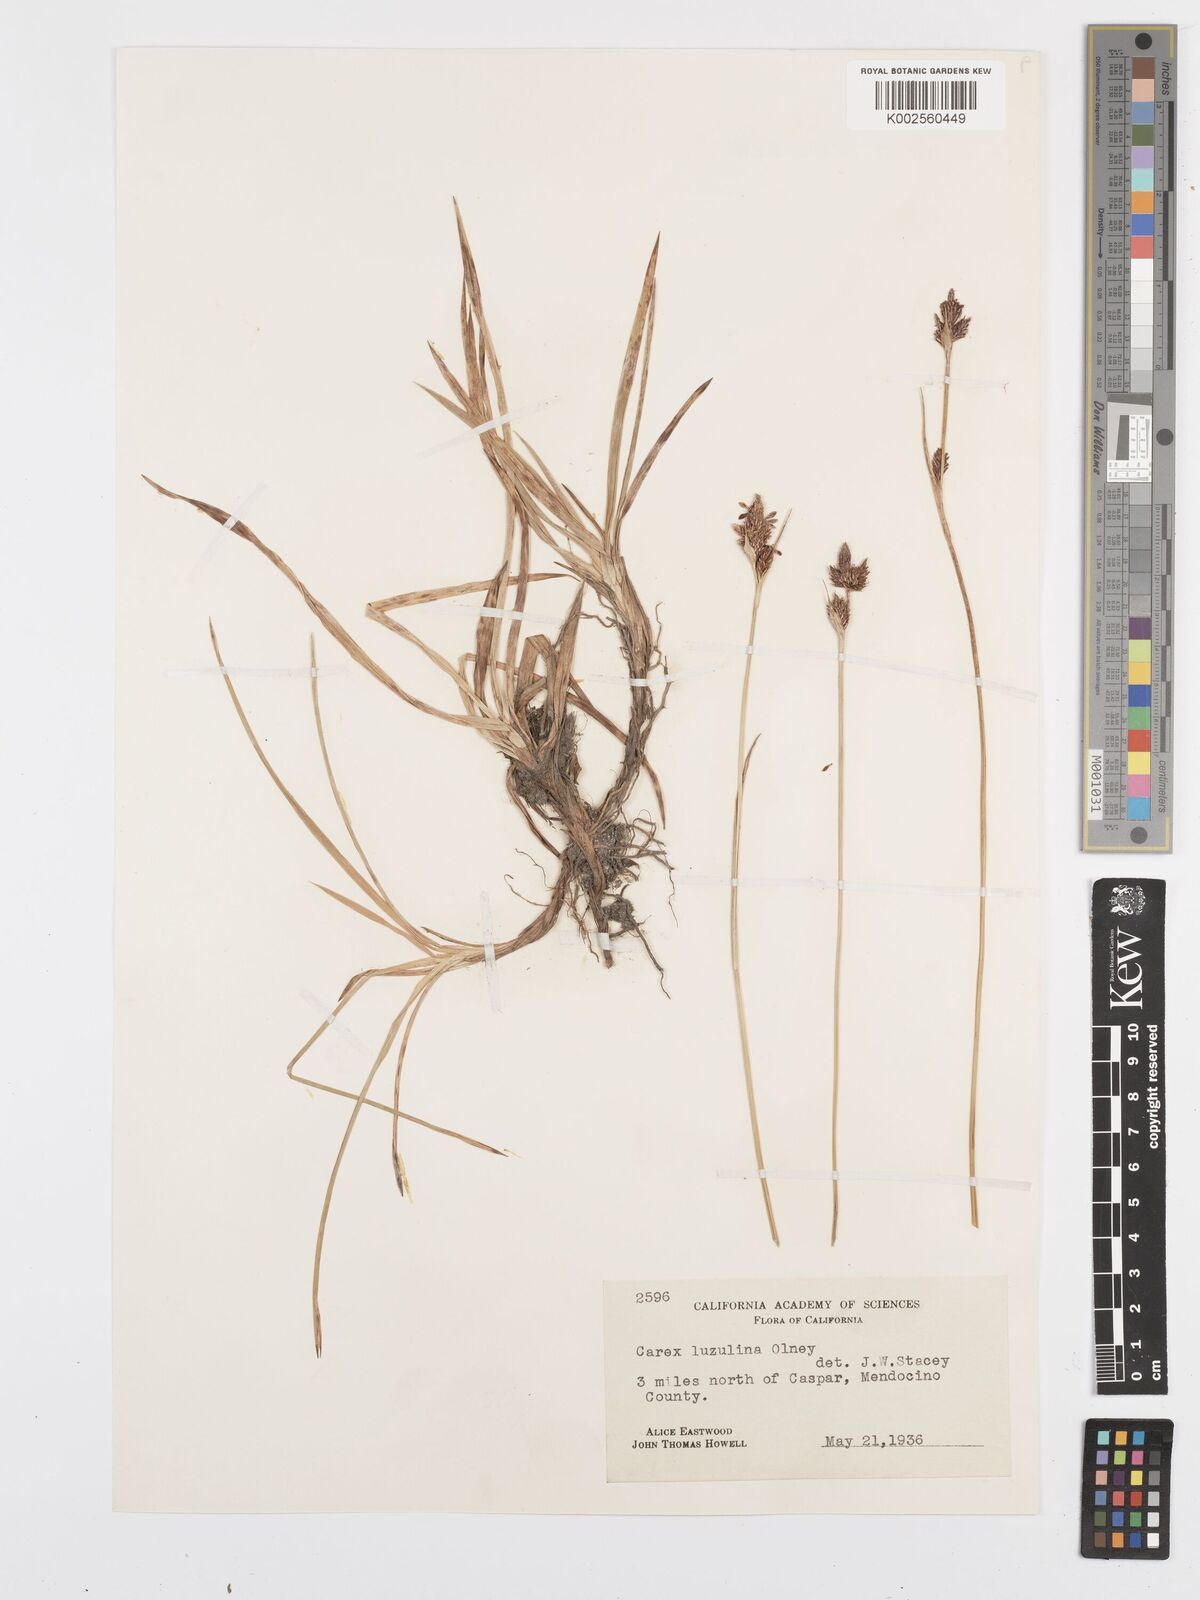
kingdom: Plantae
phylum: Tracheophyta
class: Liliopsida
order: Poales
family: Cyperaceae
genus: Carex
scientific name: Carex luzulina
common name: Spring sedge
